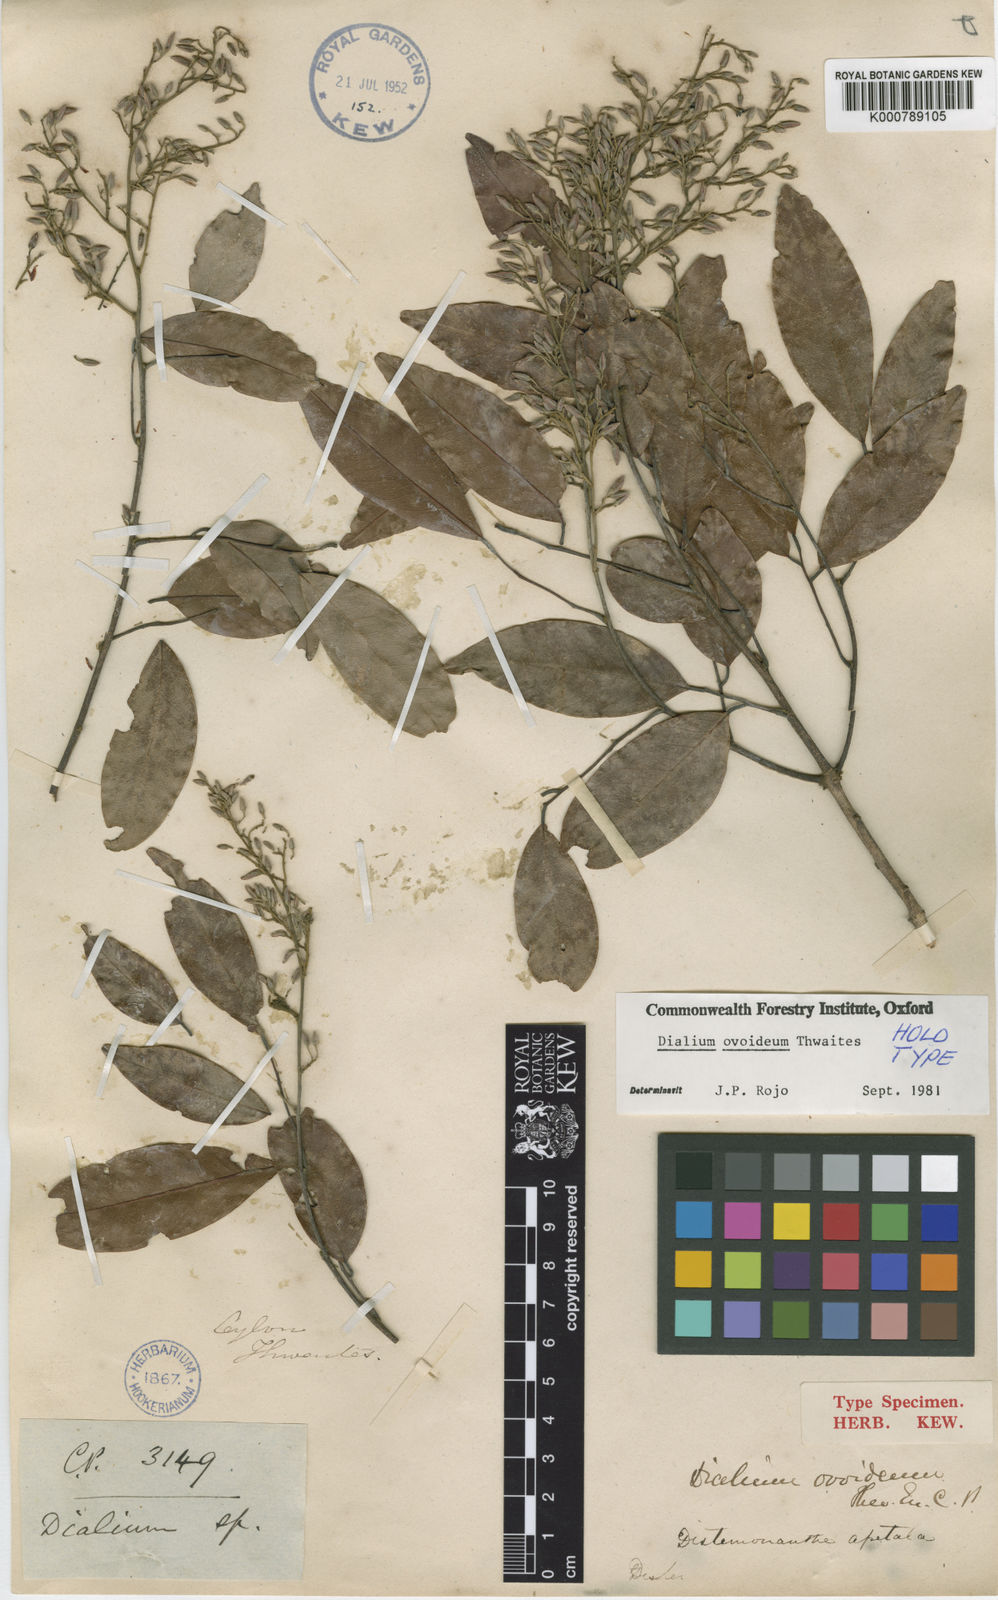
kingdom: Plantae
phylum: Tracheophyta
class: Magnoliopsida
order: Fabales
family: Fabaceae
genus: Dialium
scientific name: Dialium ovoideum
